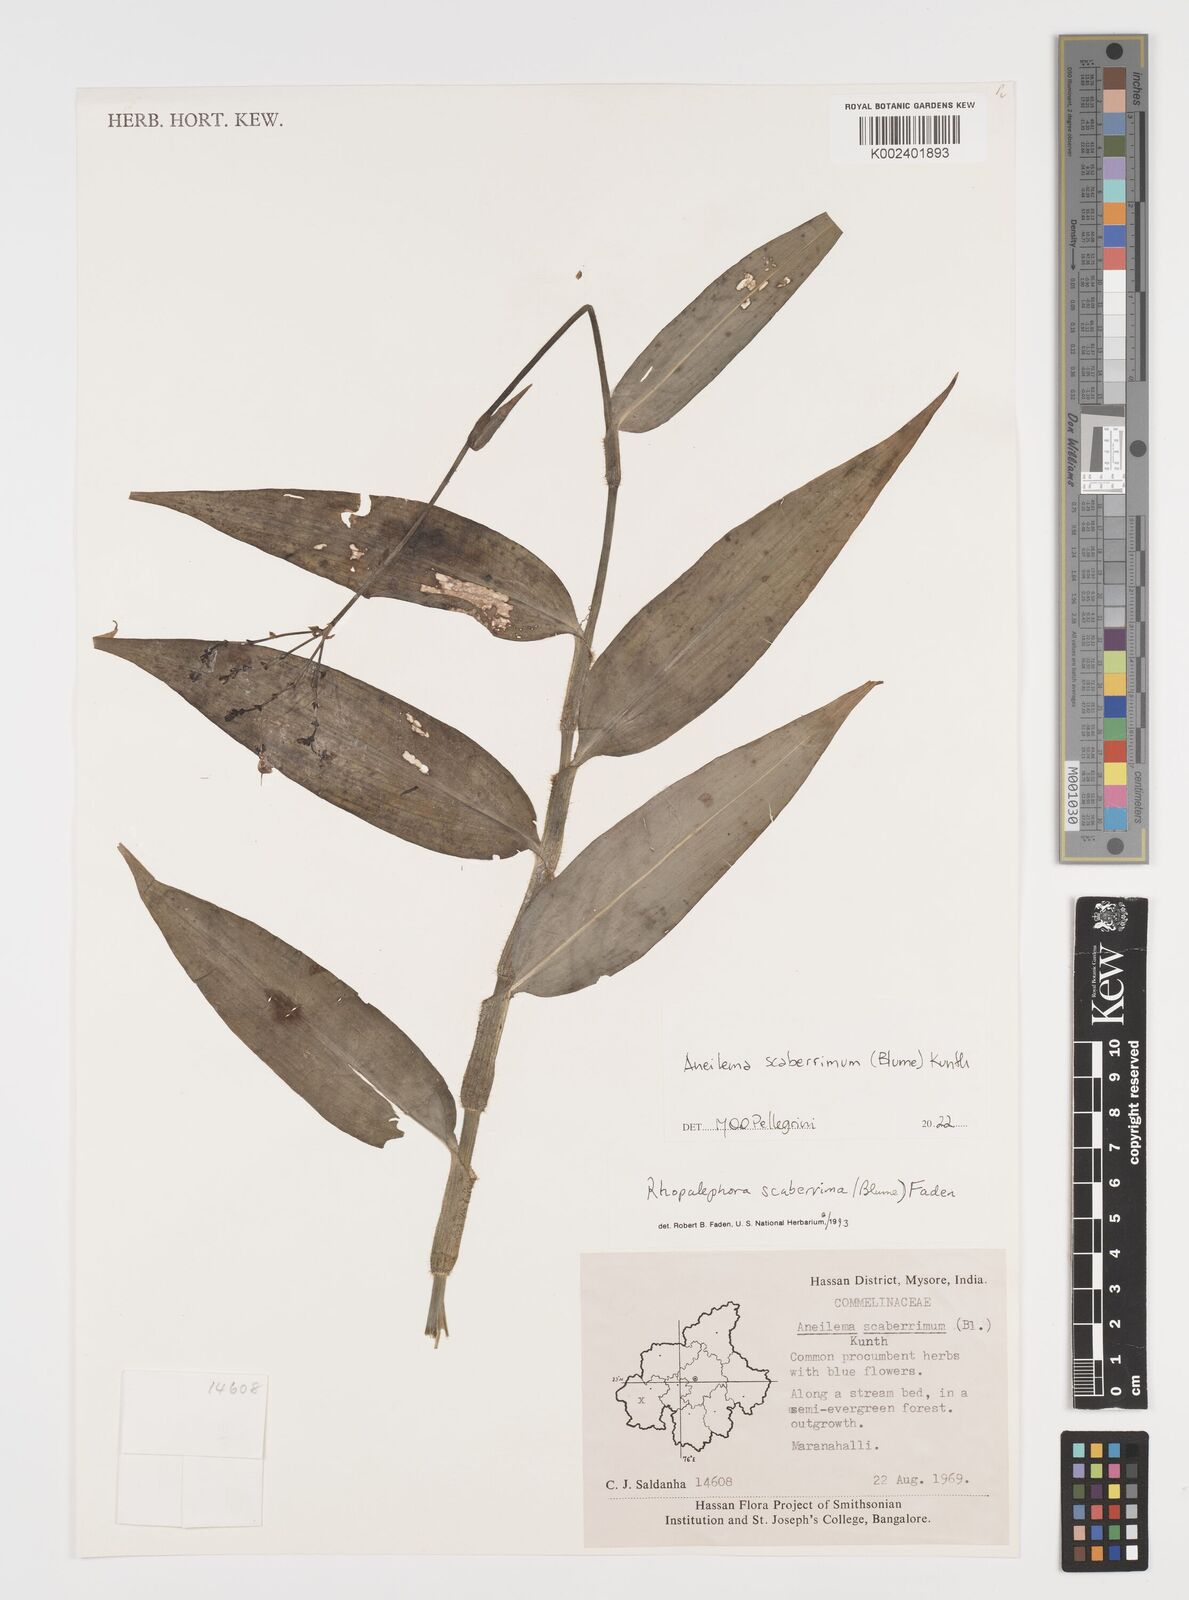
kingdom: Plantae
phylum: Tracheophyta
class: Liliopsida
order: Commelinales
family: Commelinaceae
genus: Rhopalephora
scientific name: Rhopalephora scaberrima
